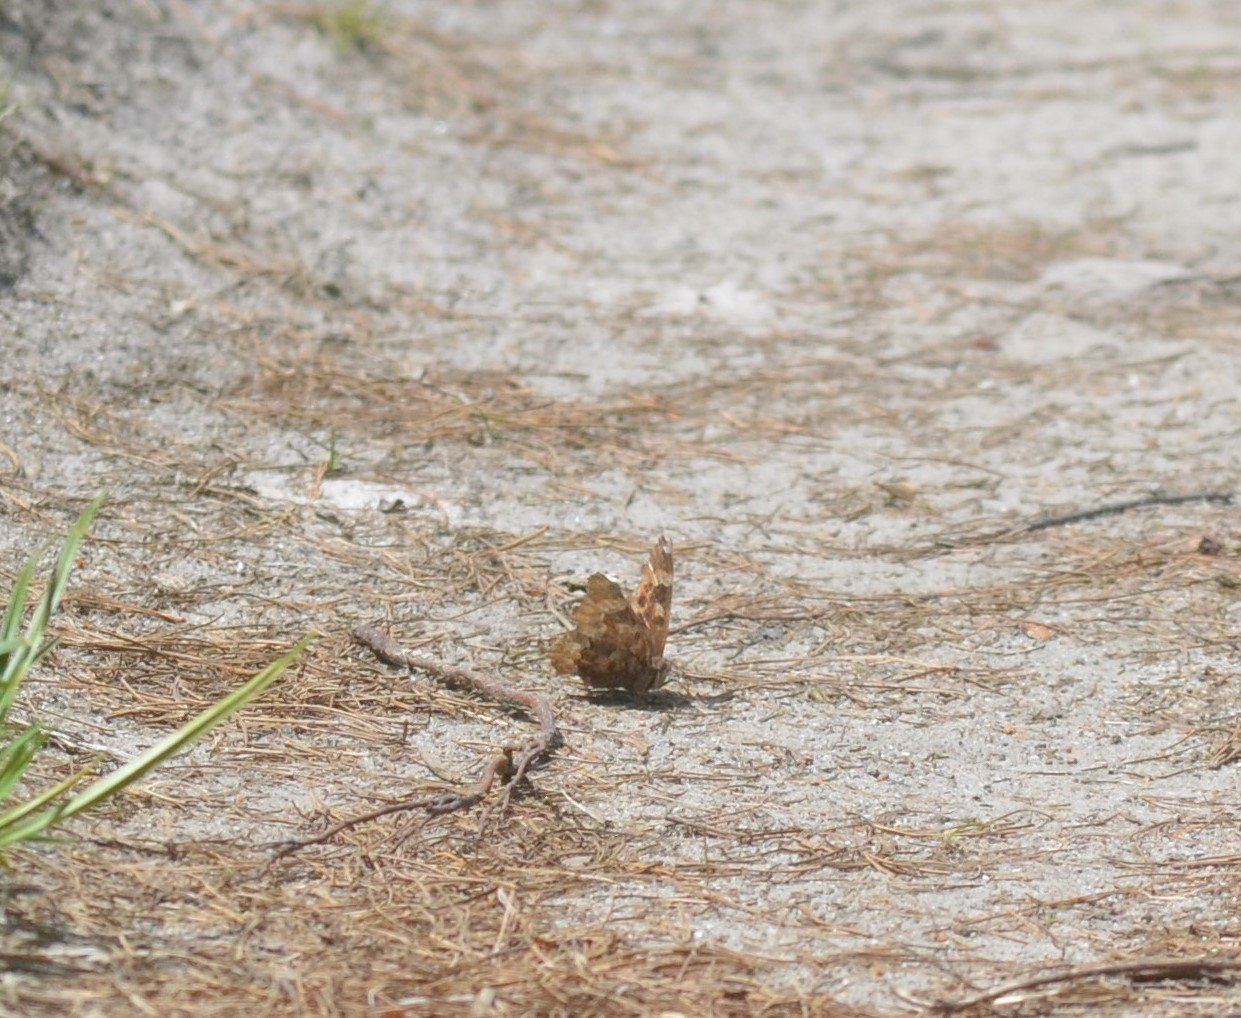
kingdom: Animalia
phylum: Arthropoda
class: Insecta
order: Lepidoptera
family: Nymphalidae
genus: Polygonia
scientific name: Polygonia vaualbum
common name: Compton Tortoiseshell
